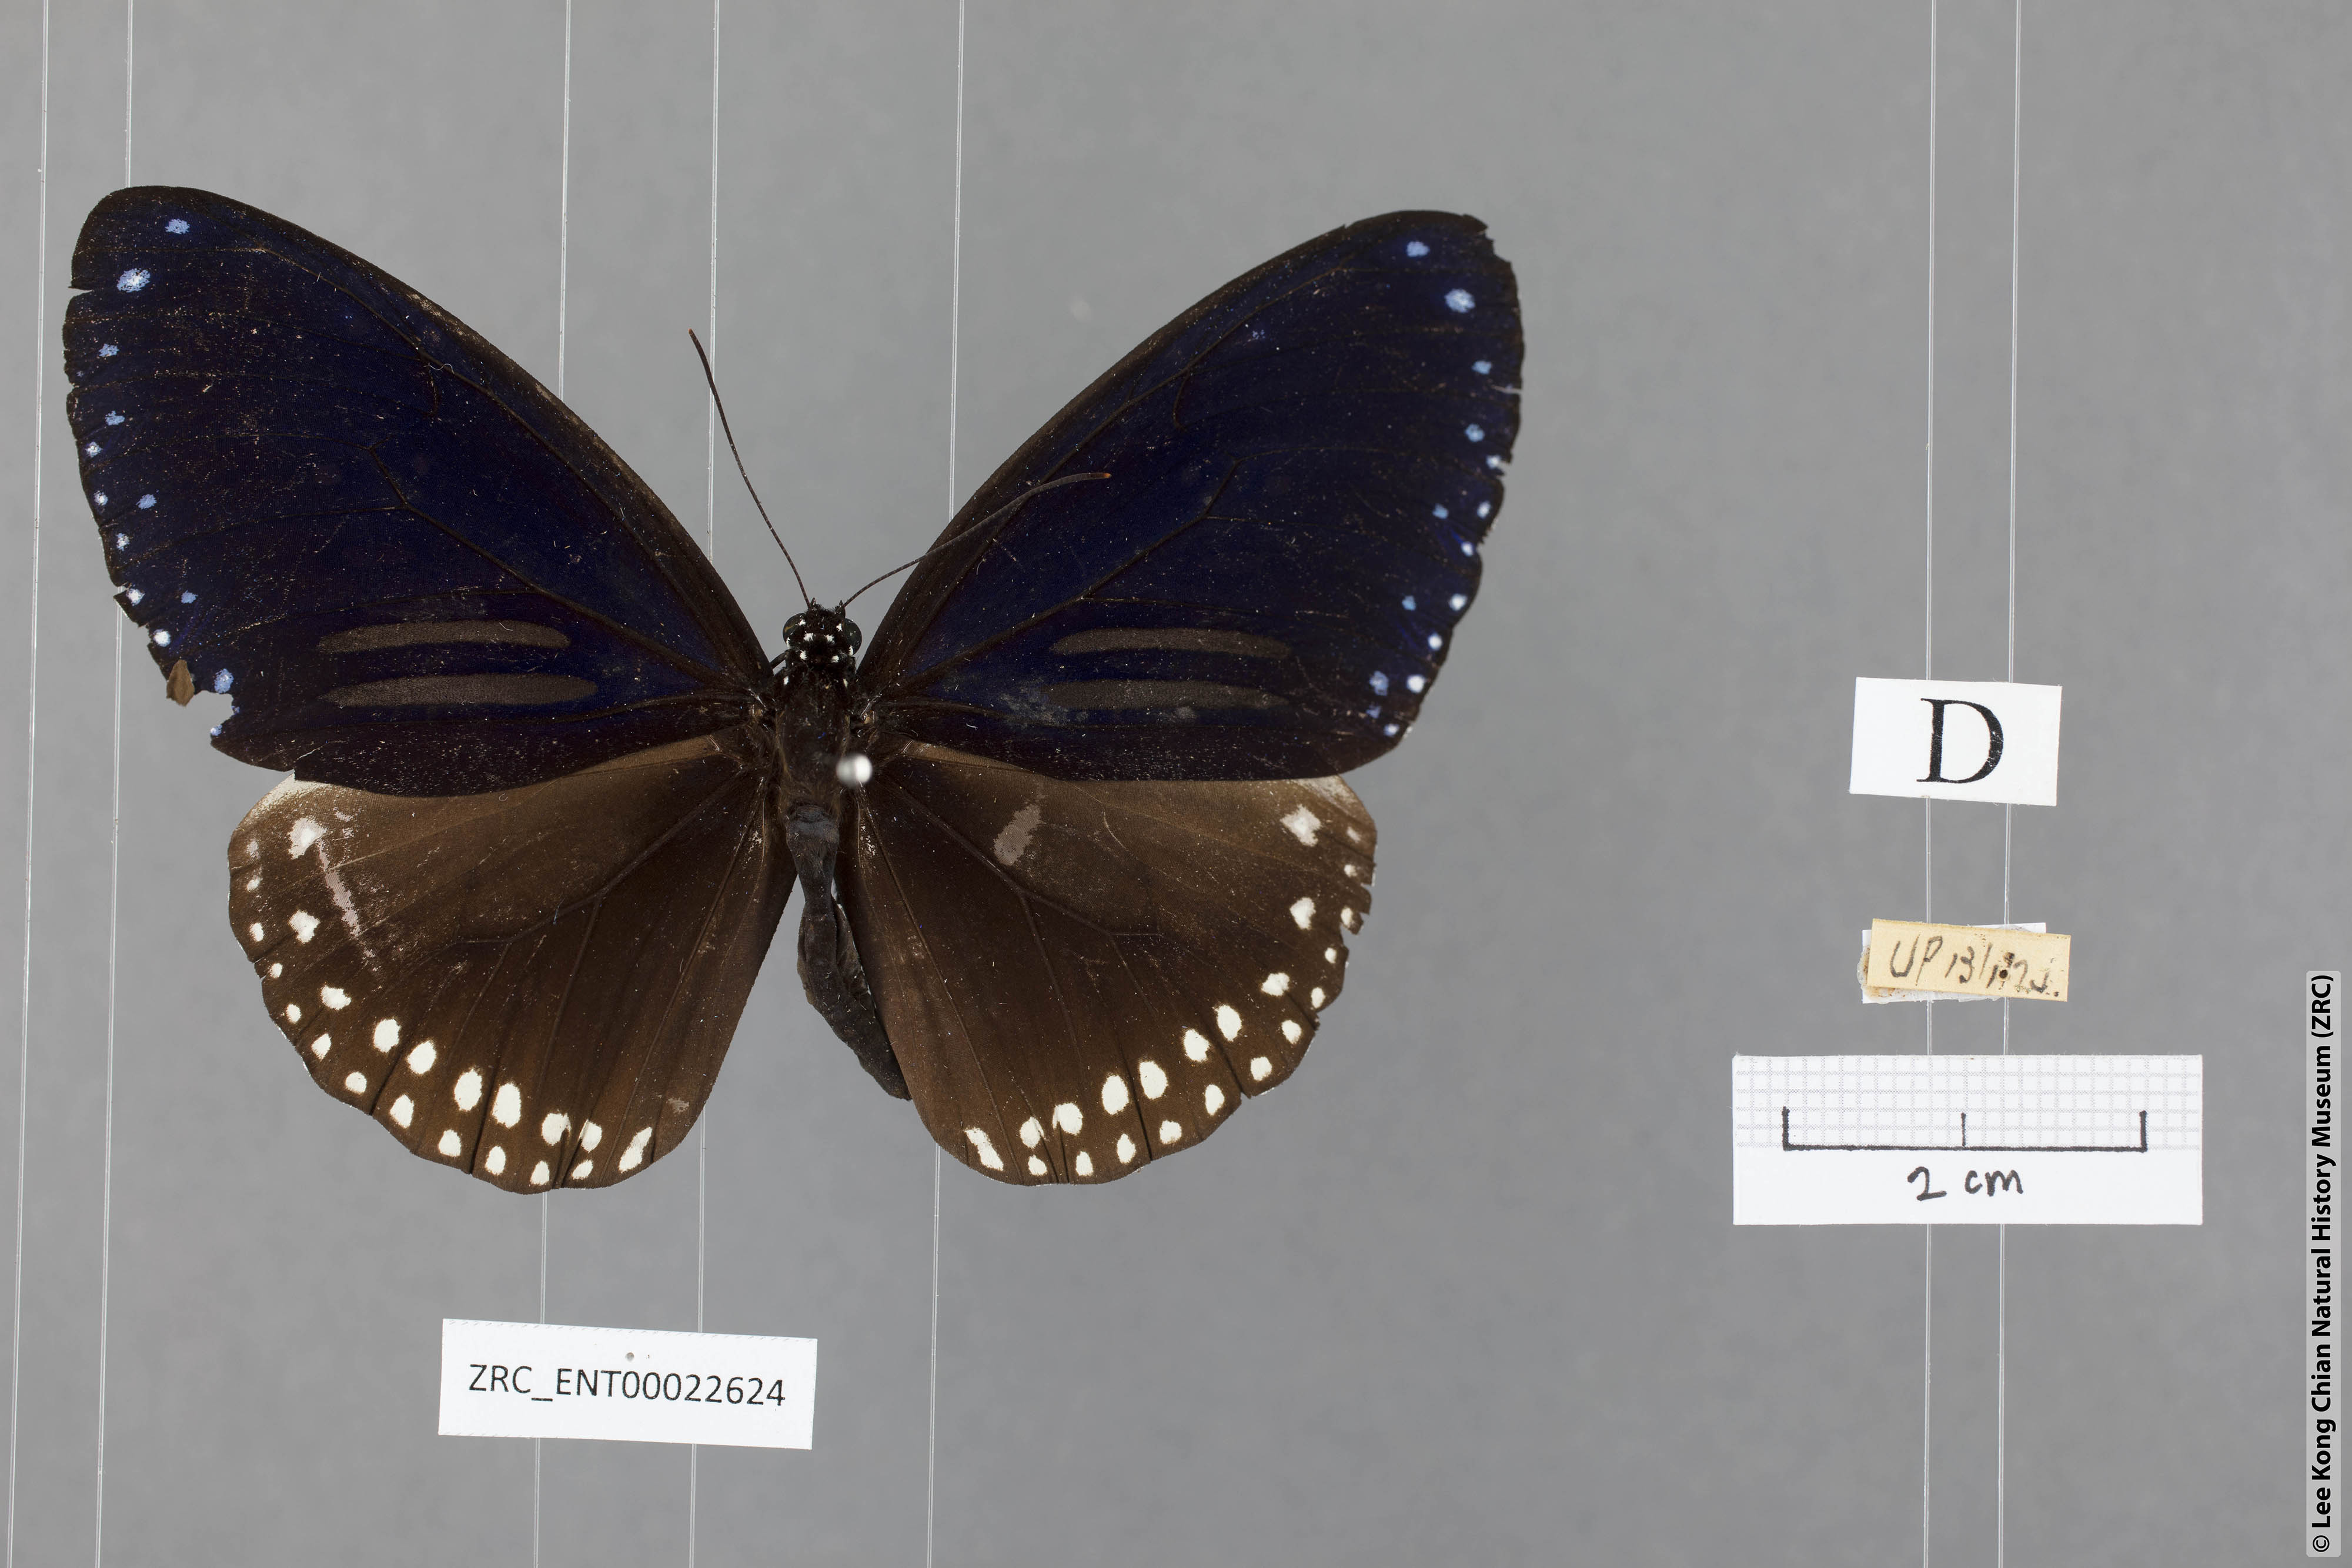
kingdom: Animalia
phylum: Arthropoda
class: Insecta
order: Lepidoptera
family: Nymphalidae
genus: Euploea
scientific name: Euploea sylvester
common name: Double-branded crow butterfly
